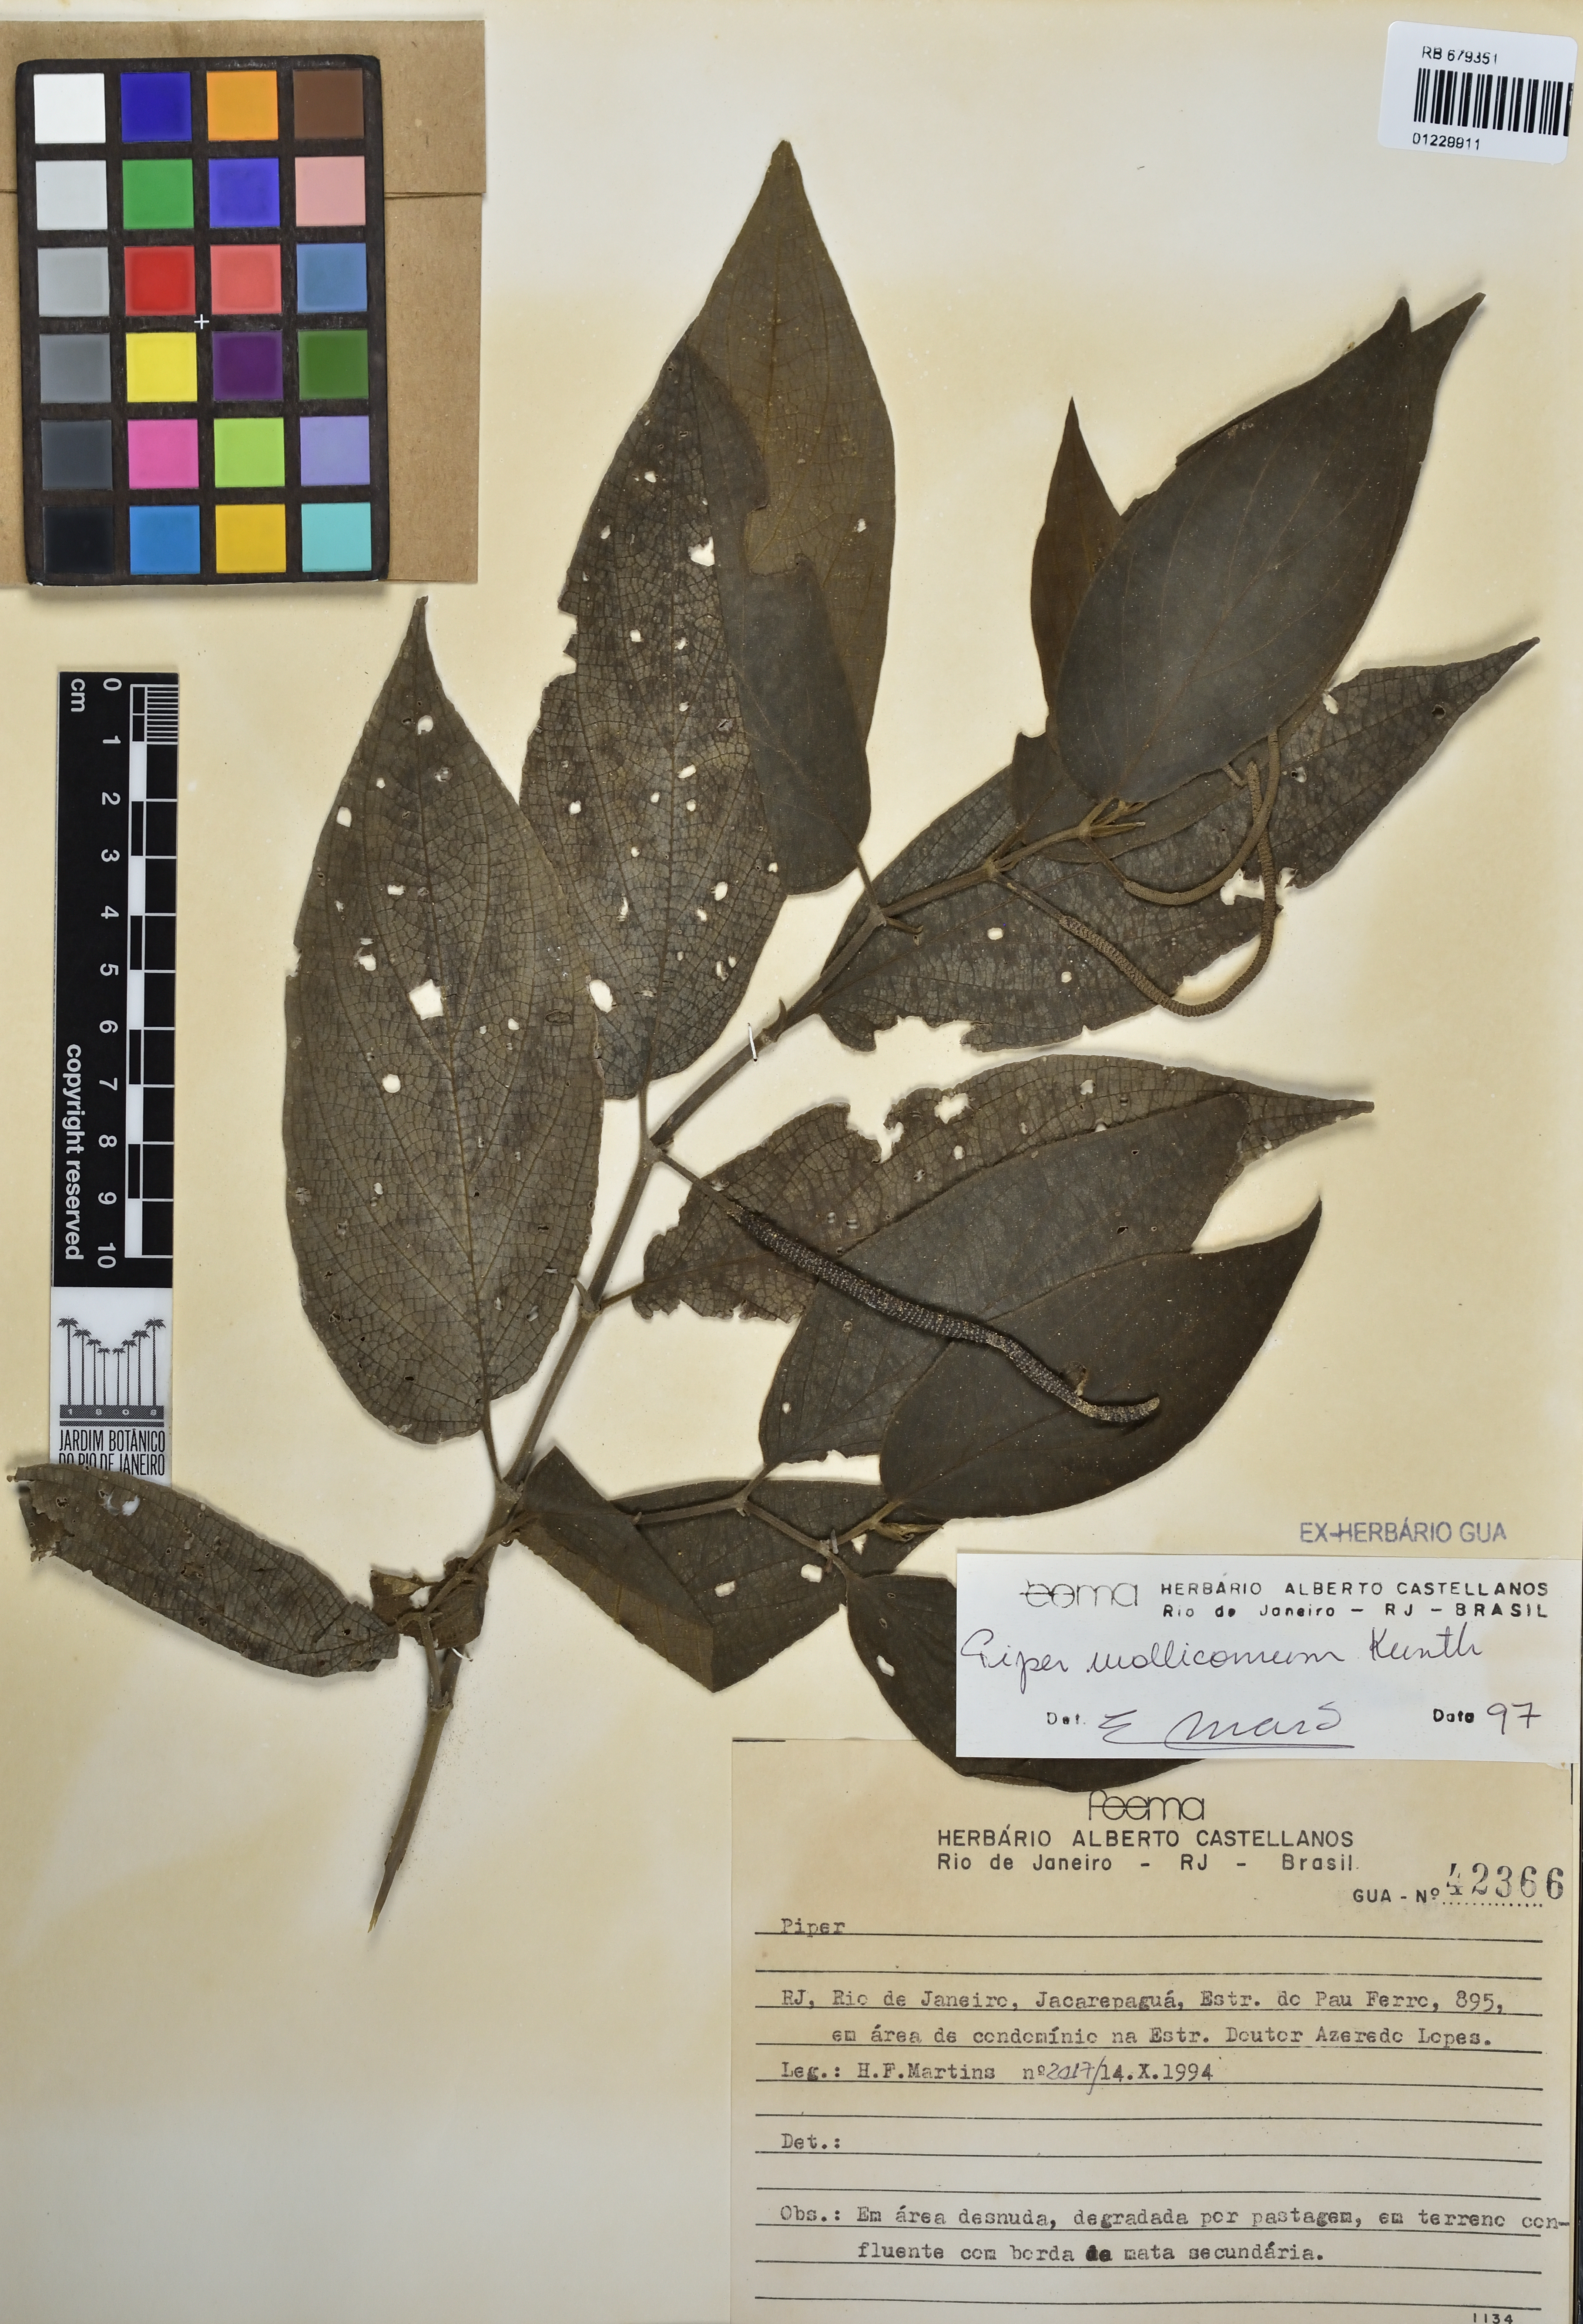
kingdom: Plantae
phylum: Tracheophyta
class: Magnoliopsida
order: Piperales
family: Piperaceae
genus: Piper
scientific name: Piper mollicomum
